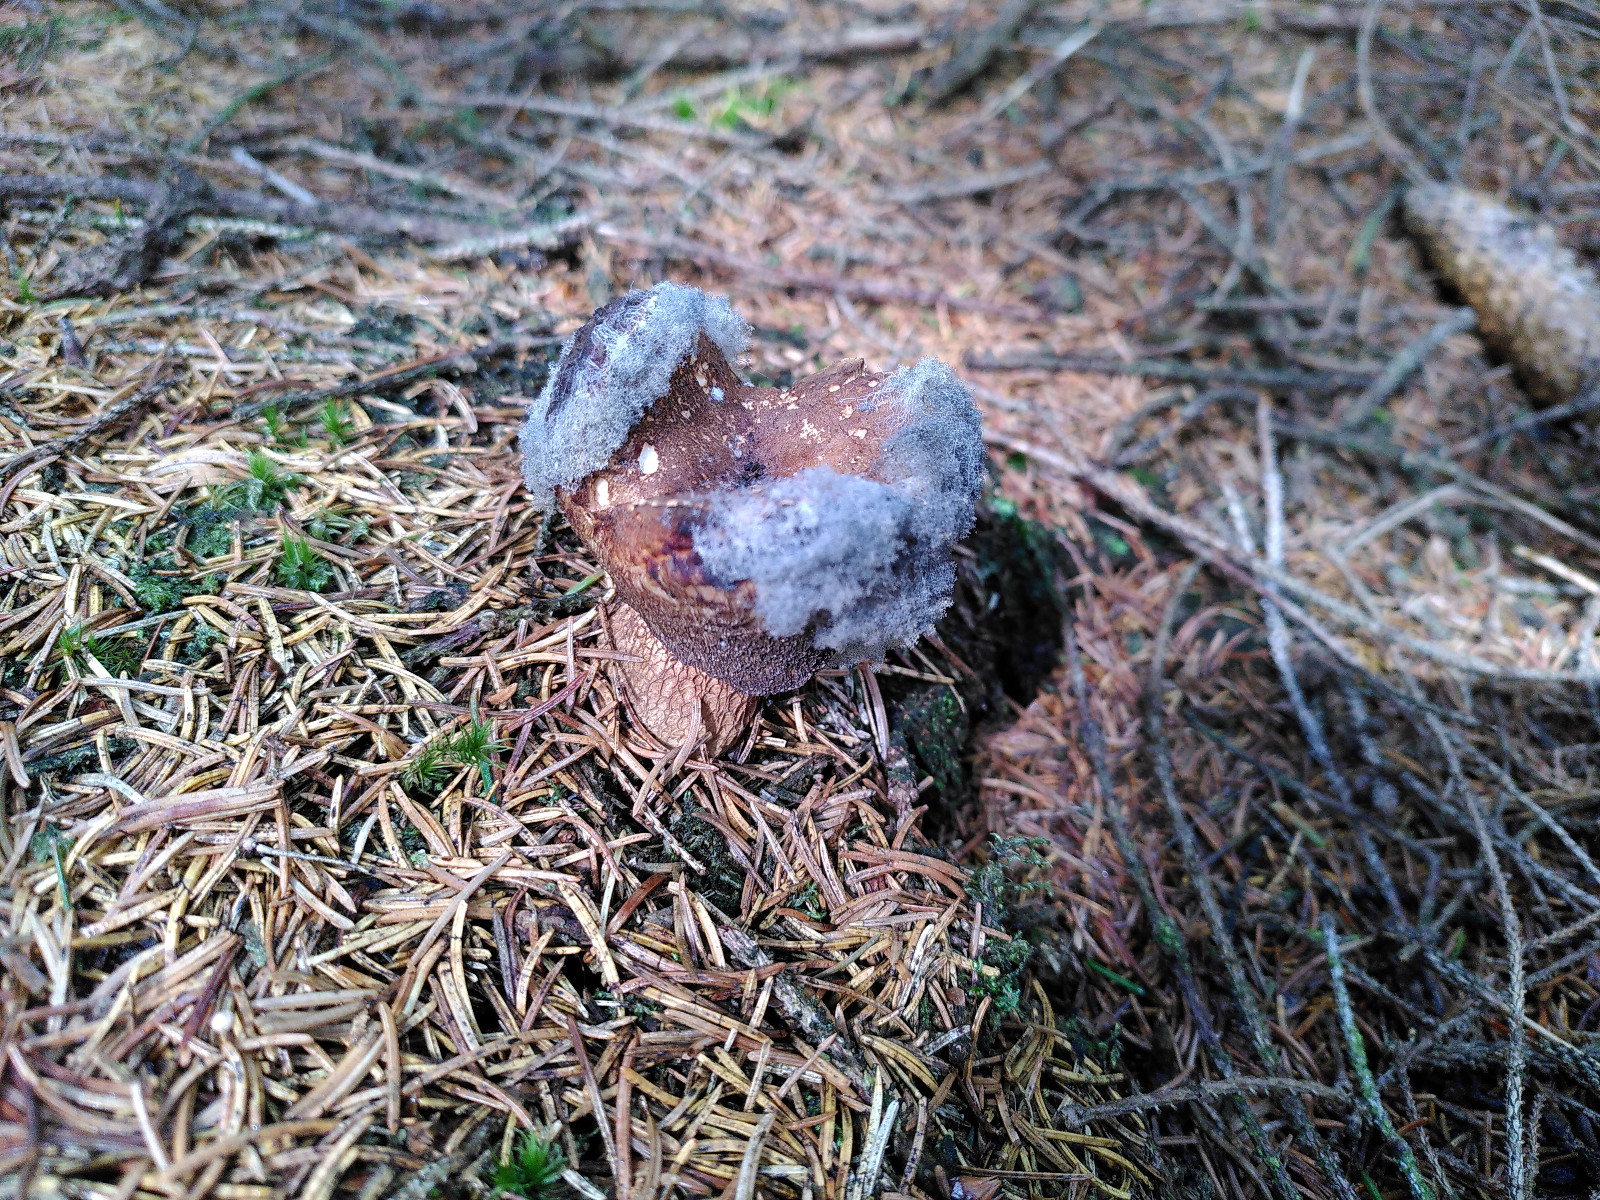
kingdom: Fungi
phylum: Mucoromycota
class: Mucoromycetes
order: Mucorales
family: Rhizopodaceae
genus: Syzygites
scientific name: Syzygites megalocarpus
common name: nissenål
